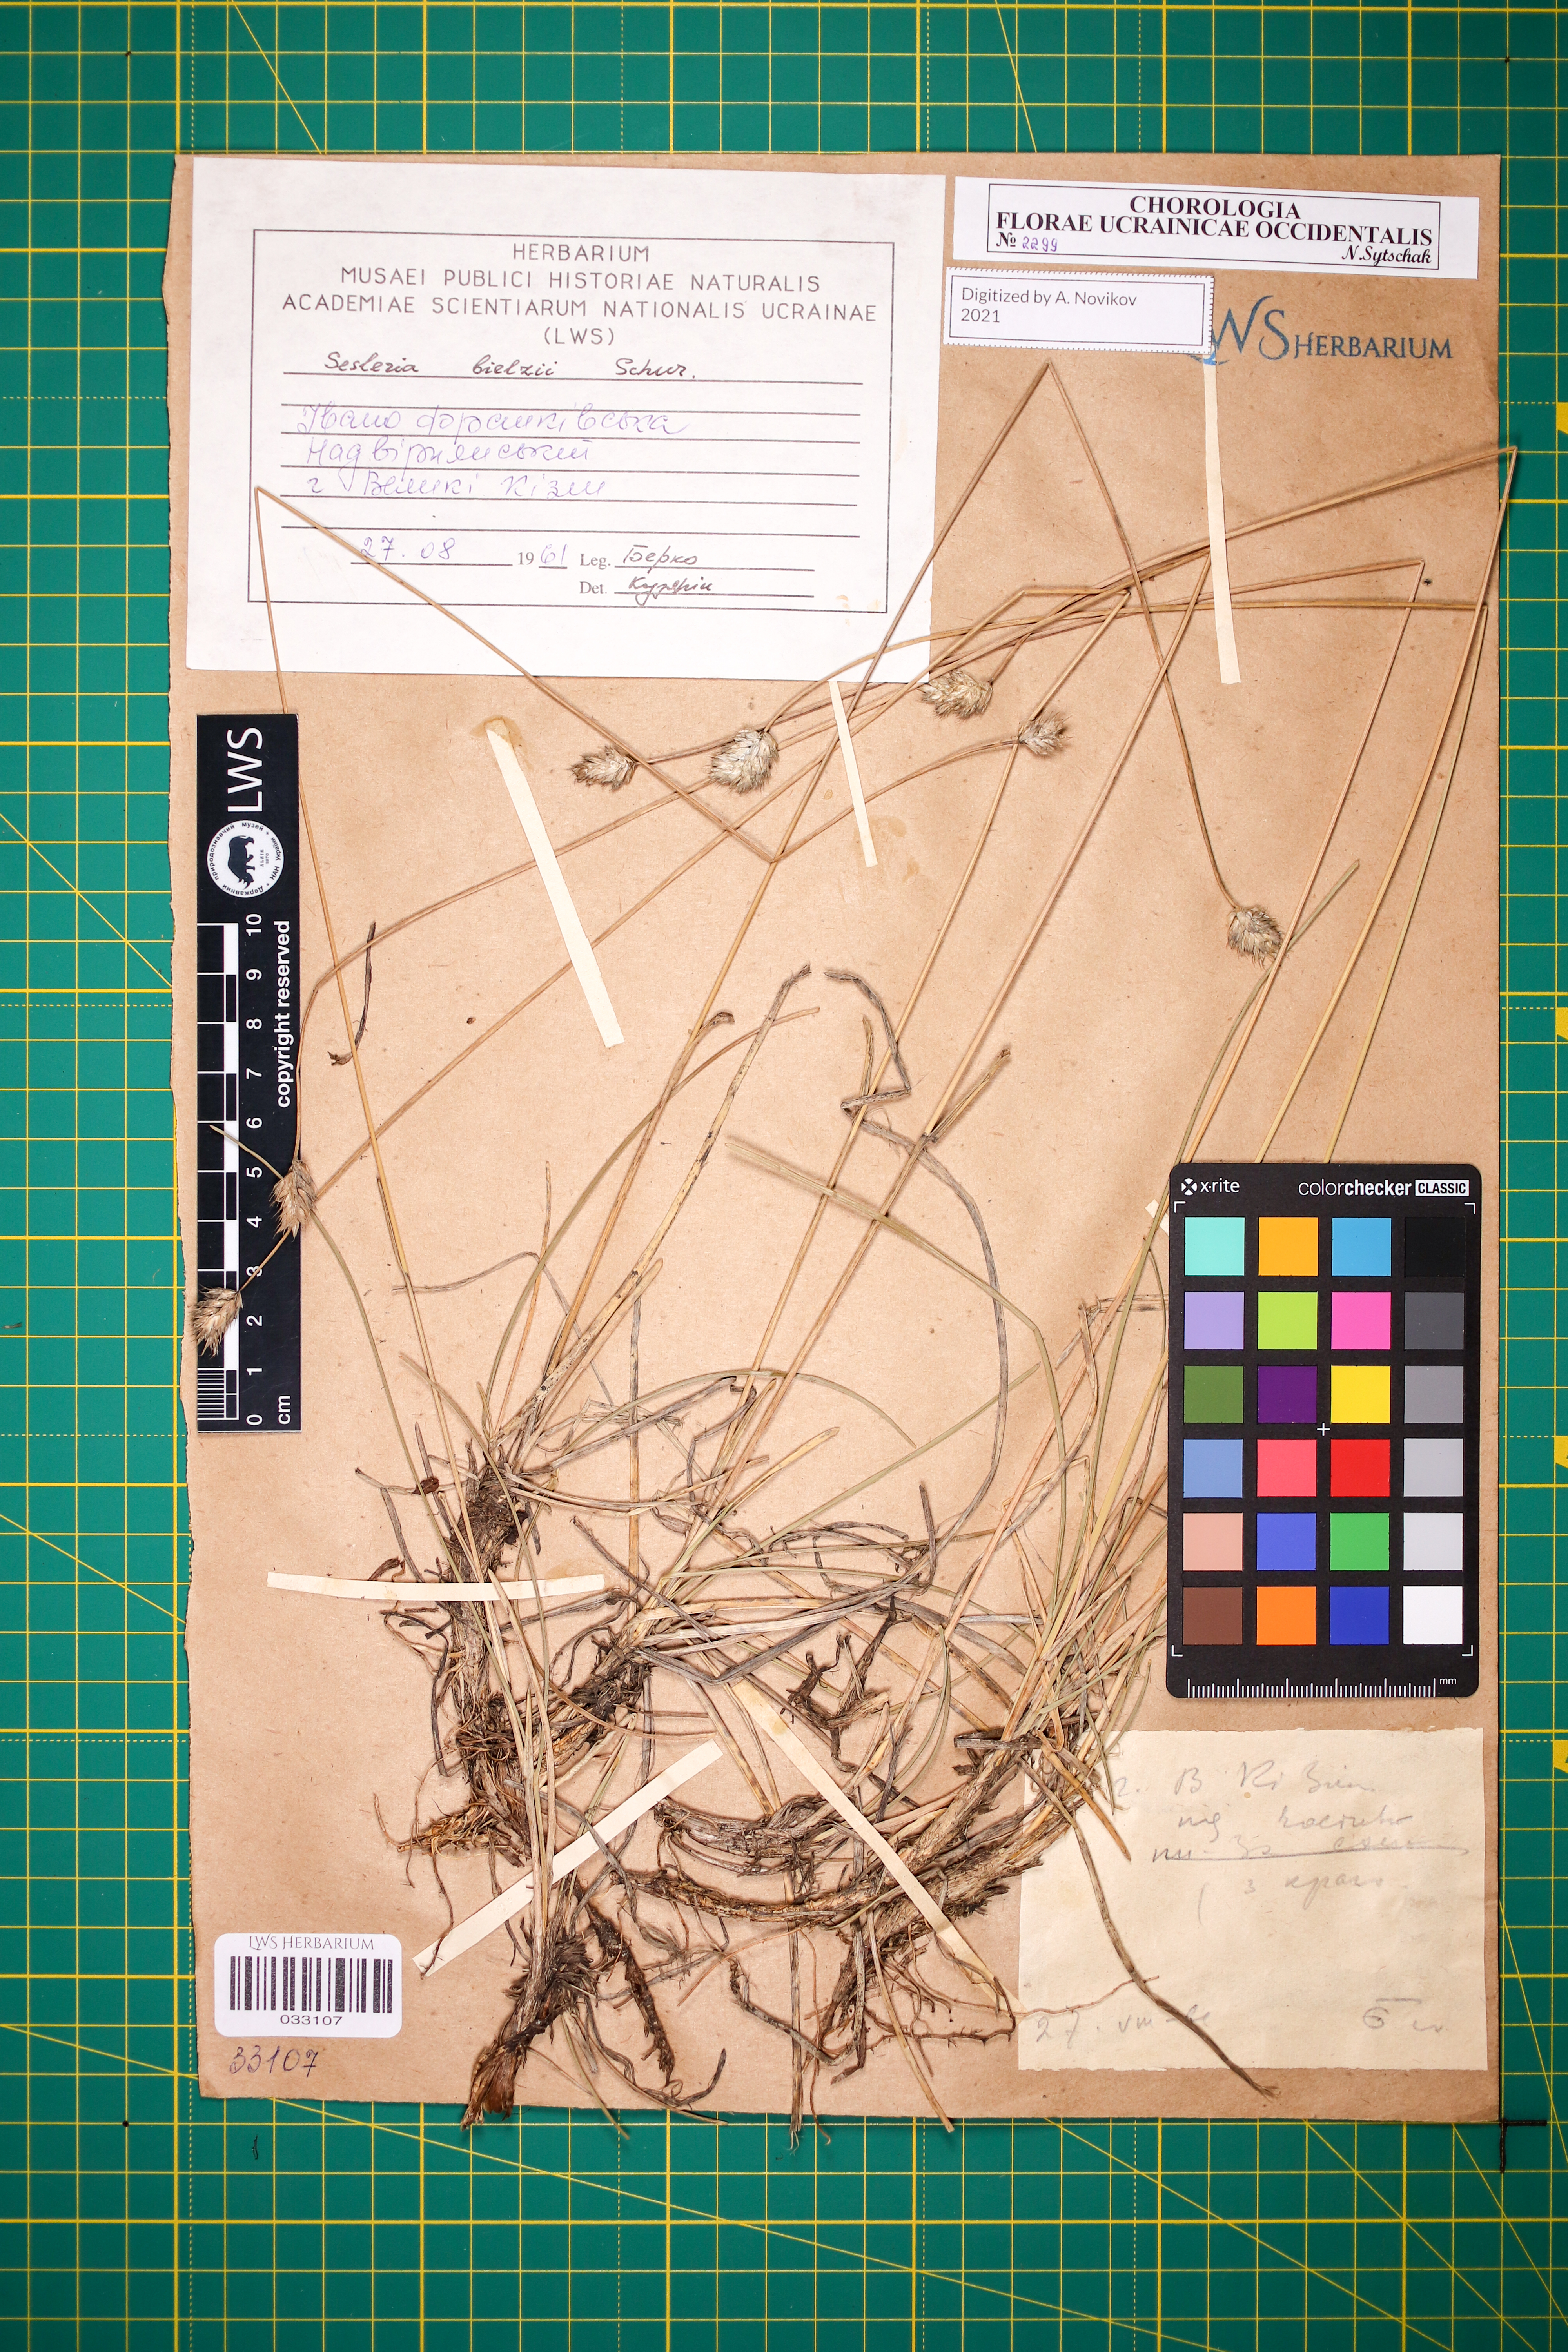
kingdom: Plantae
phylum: Tracheophyta
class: Liliopsida
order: Poales
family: Poaceae
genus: Sesleria
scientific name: Sesleria bielzii
